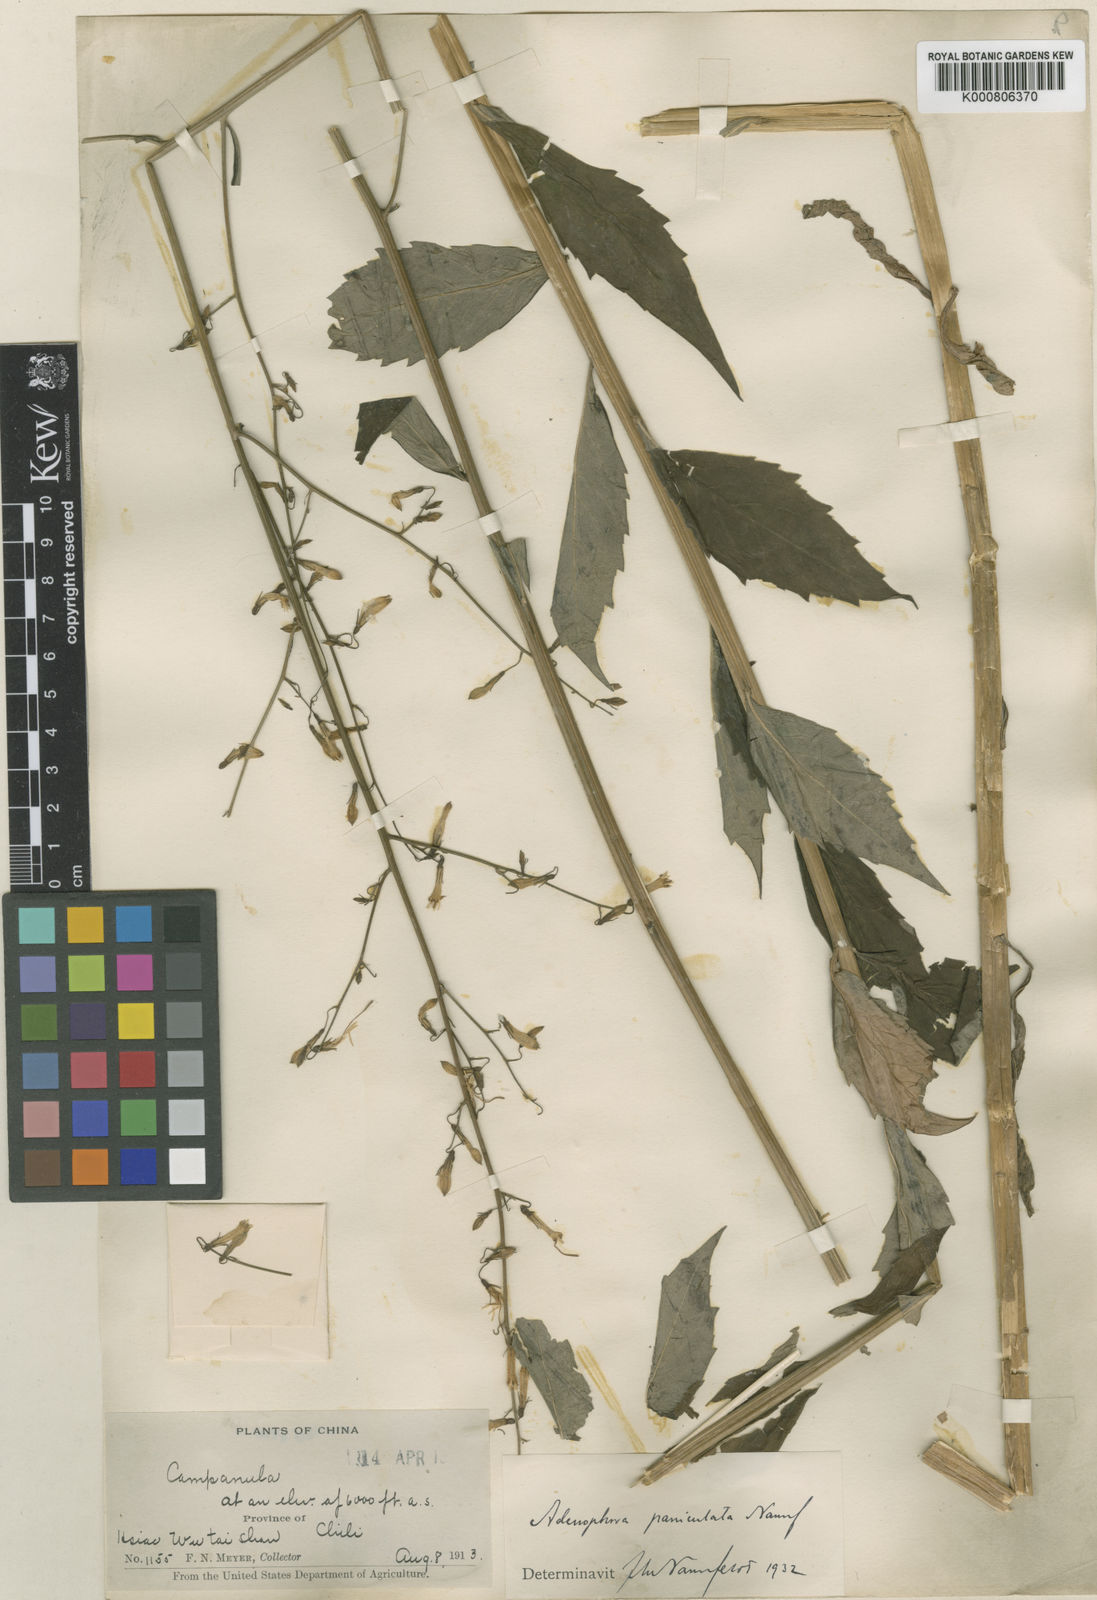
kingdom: Plantae
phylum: Tracheophyta
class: Magnoliopsida
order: Asterales
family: Campanulaceae
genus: Adenophora
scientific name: Adenophora capillaris
